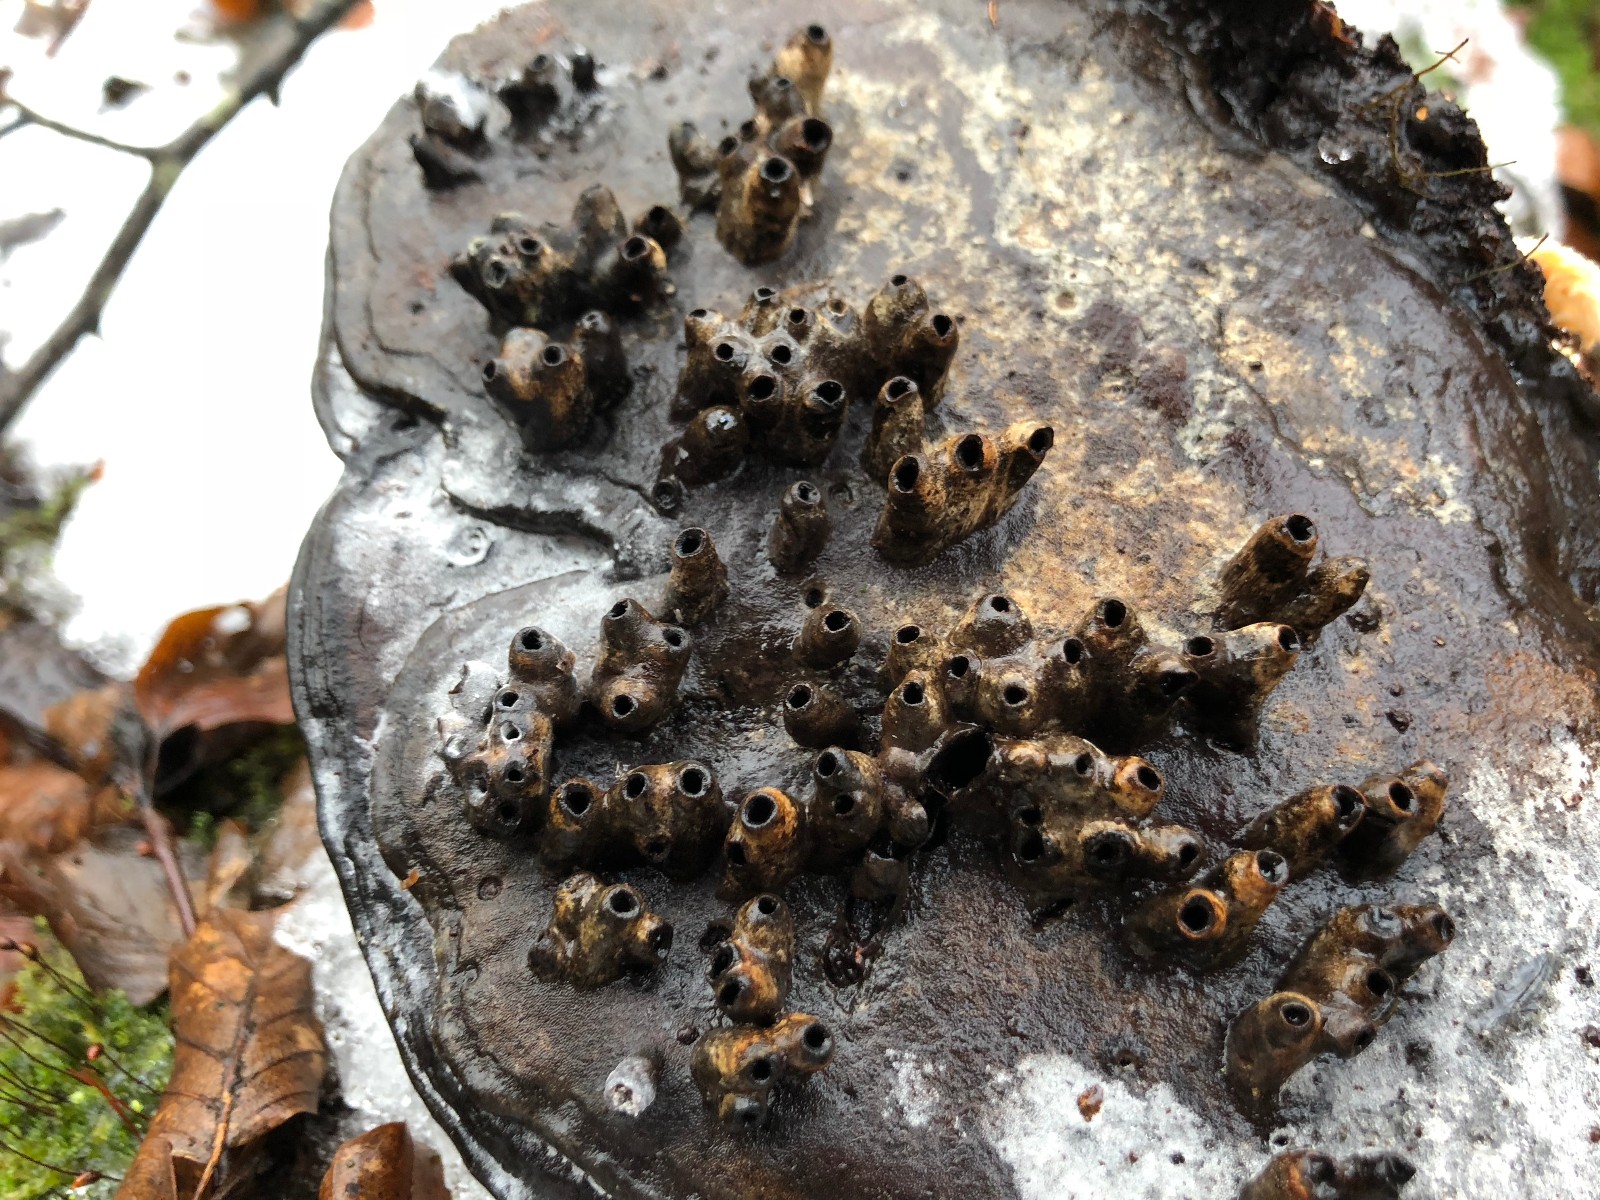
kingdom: Fungi
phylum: Basidiomycota
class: Agaricomycetes
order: Polyporales
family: Polyporaceae
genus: Ganoderma
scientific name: Ganoderma applanatum
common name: flad lakporesvamp
